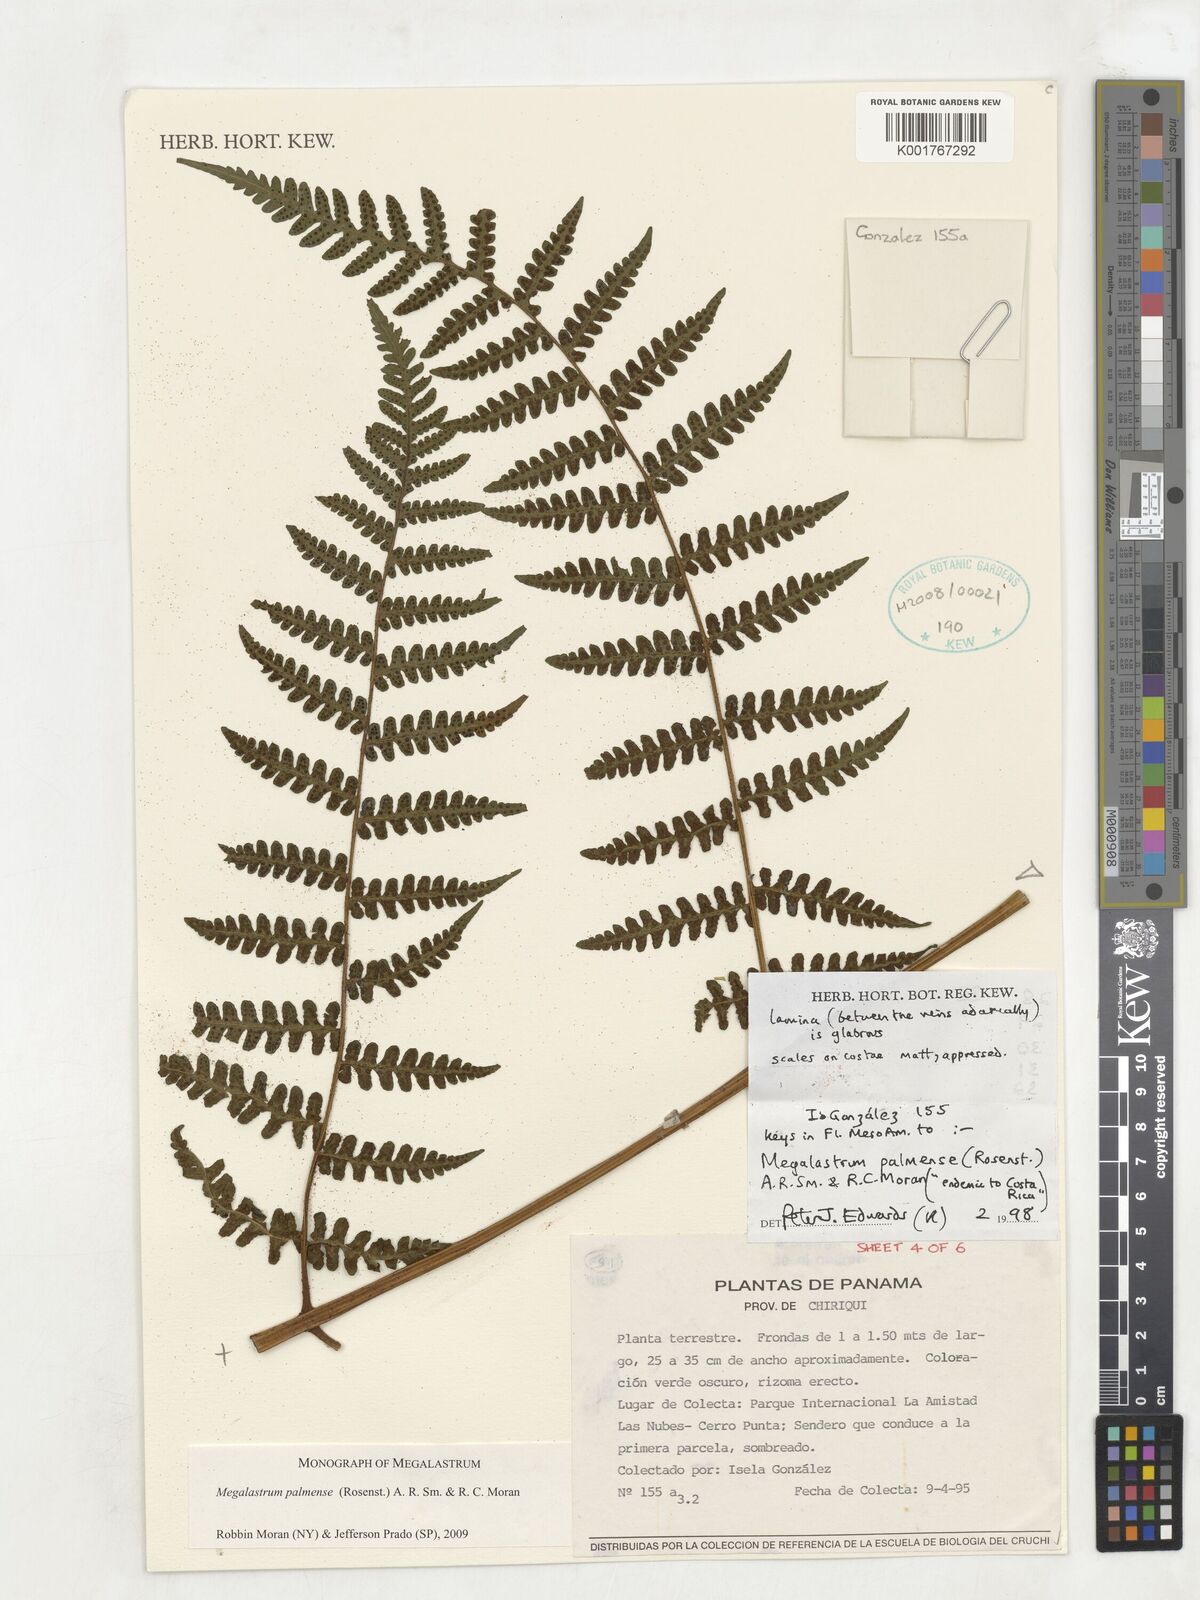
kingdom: Plantae
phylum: Tracheophyta
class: Polypodiopsida
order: Polypodiales
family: Dryopteridaceae
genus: Megalastrum
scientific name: Megalastrum palmense
